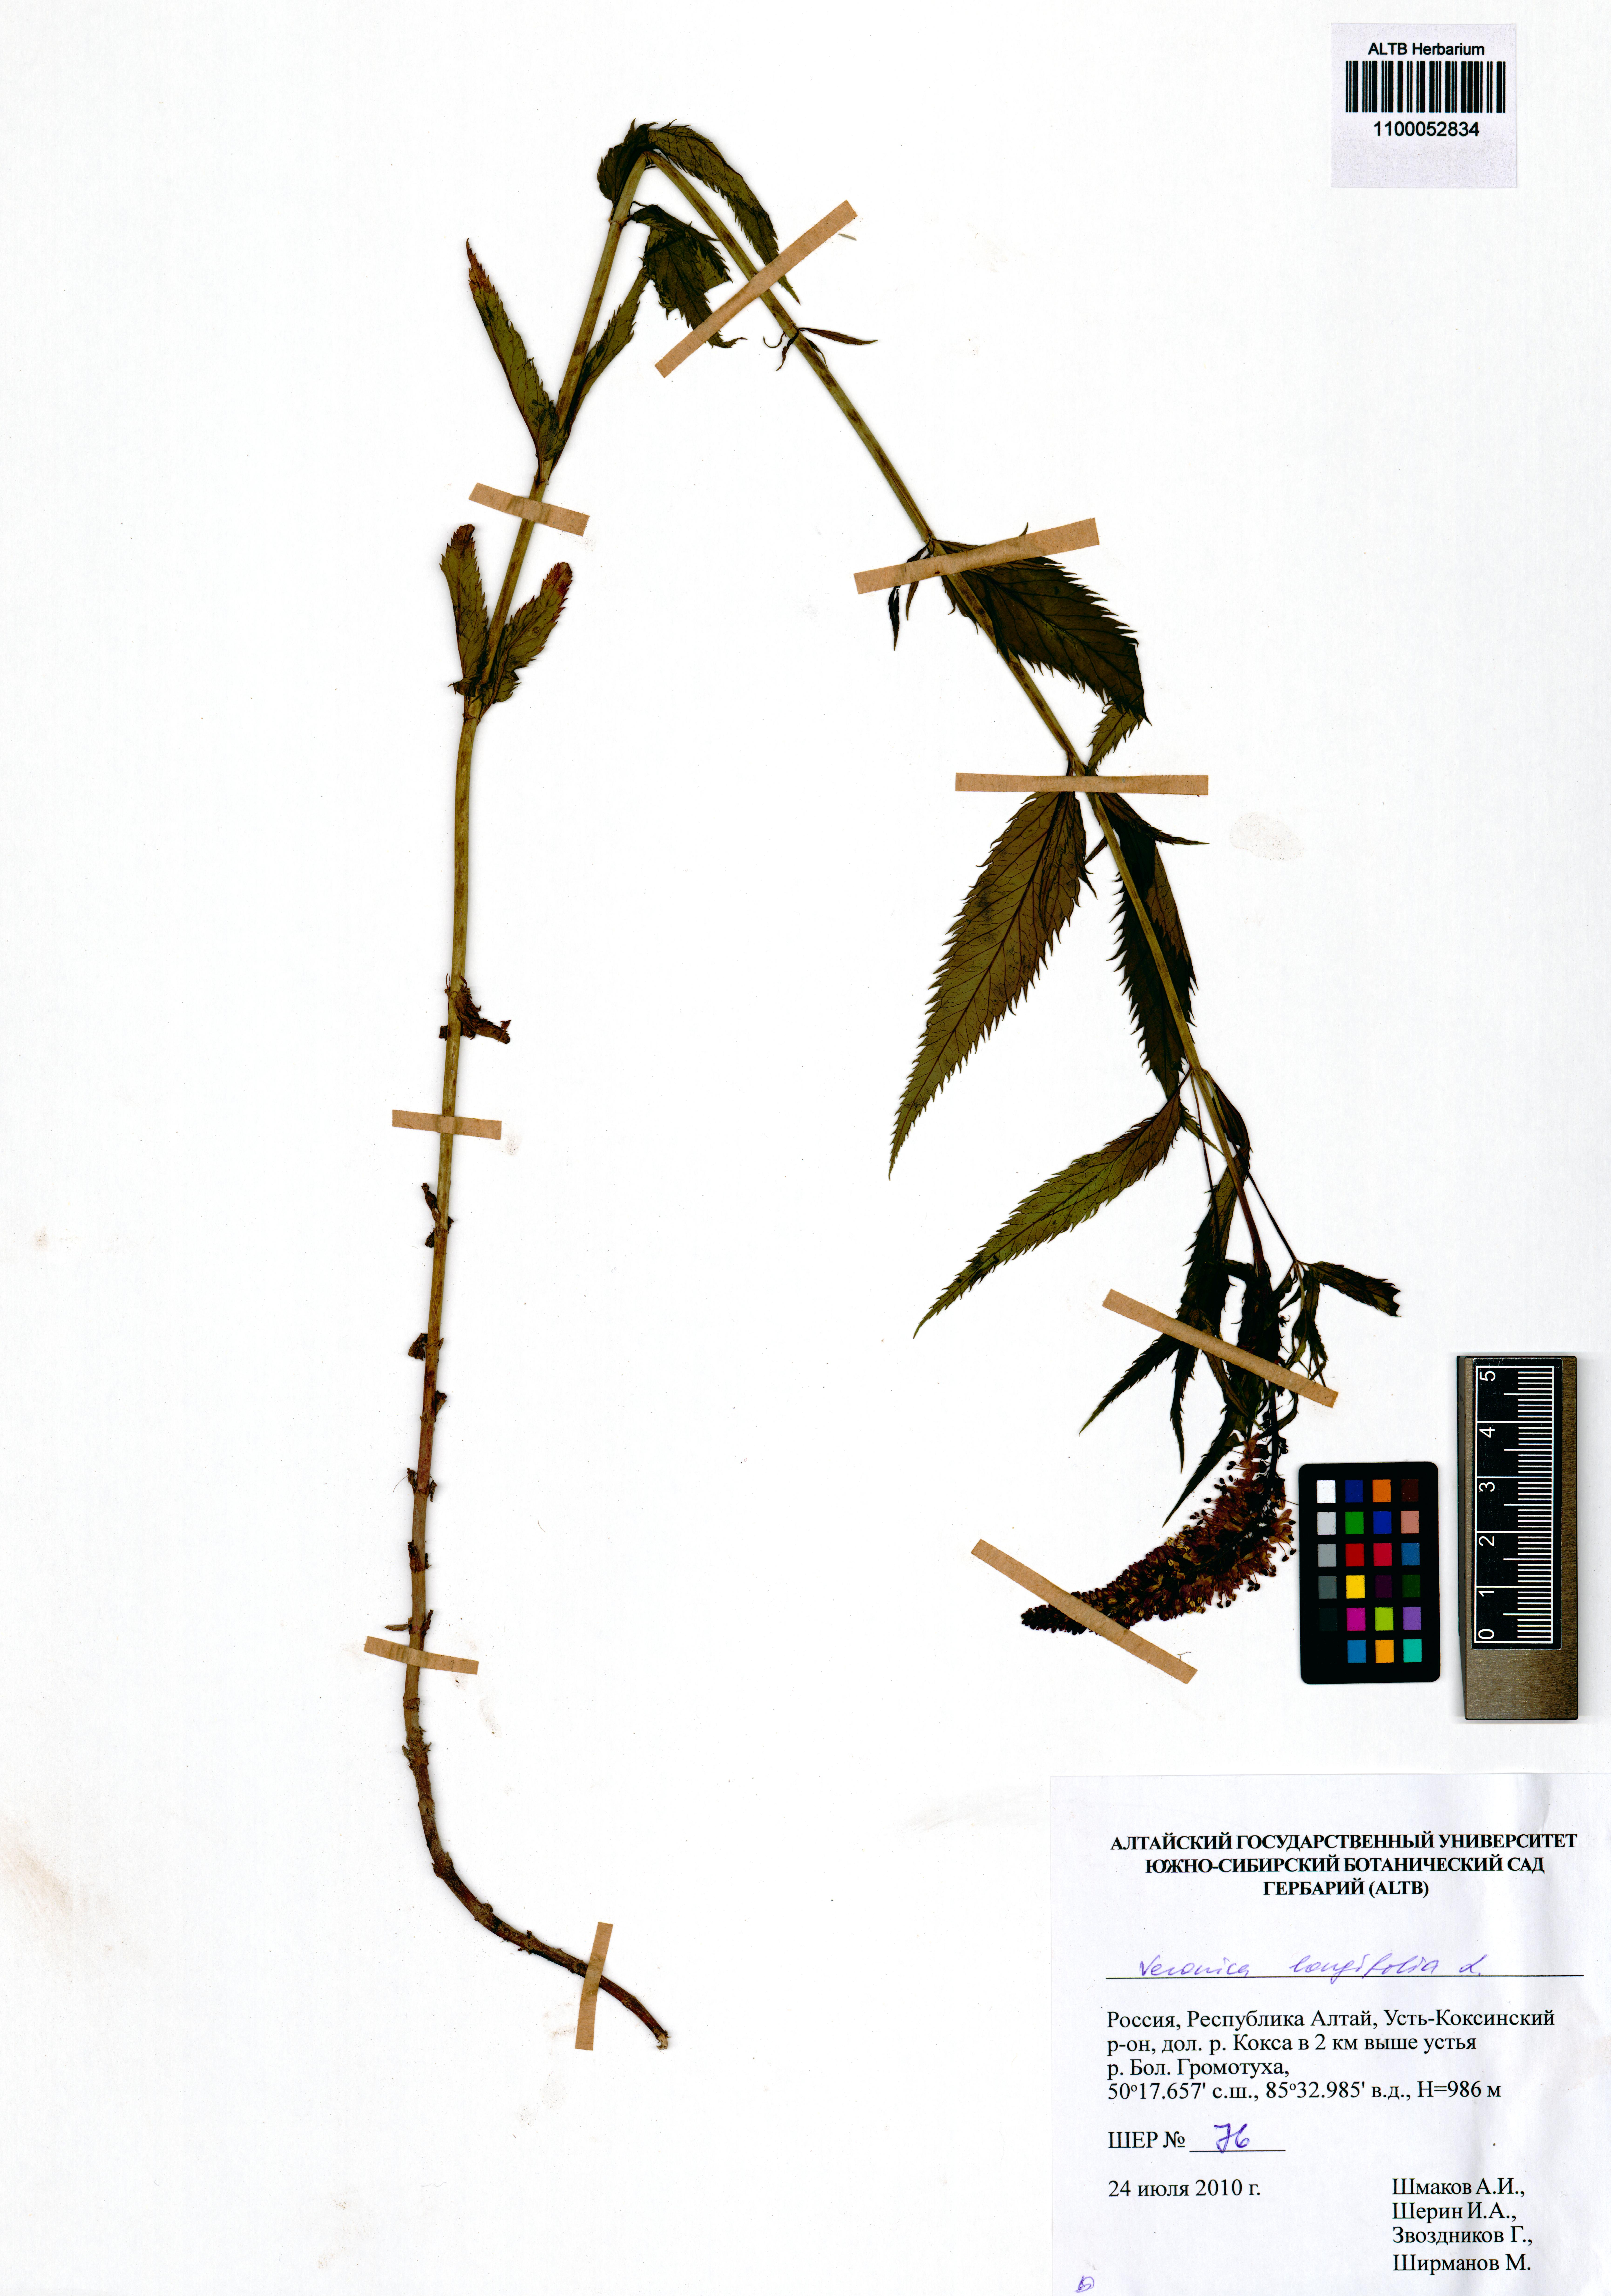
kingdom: Plantae
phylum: Tracheophyta
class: Magnoliopsida
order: Lamiales
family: Plantaginaceae
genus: Veronica
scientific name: Veronica longifolia
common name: Garden speedwell
